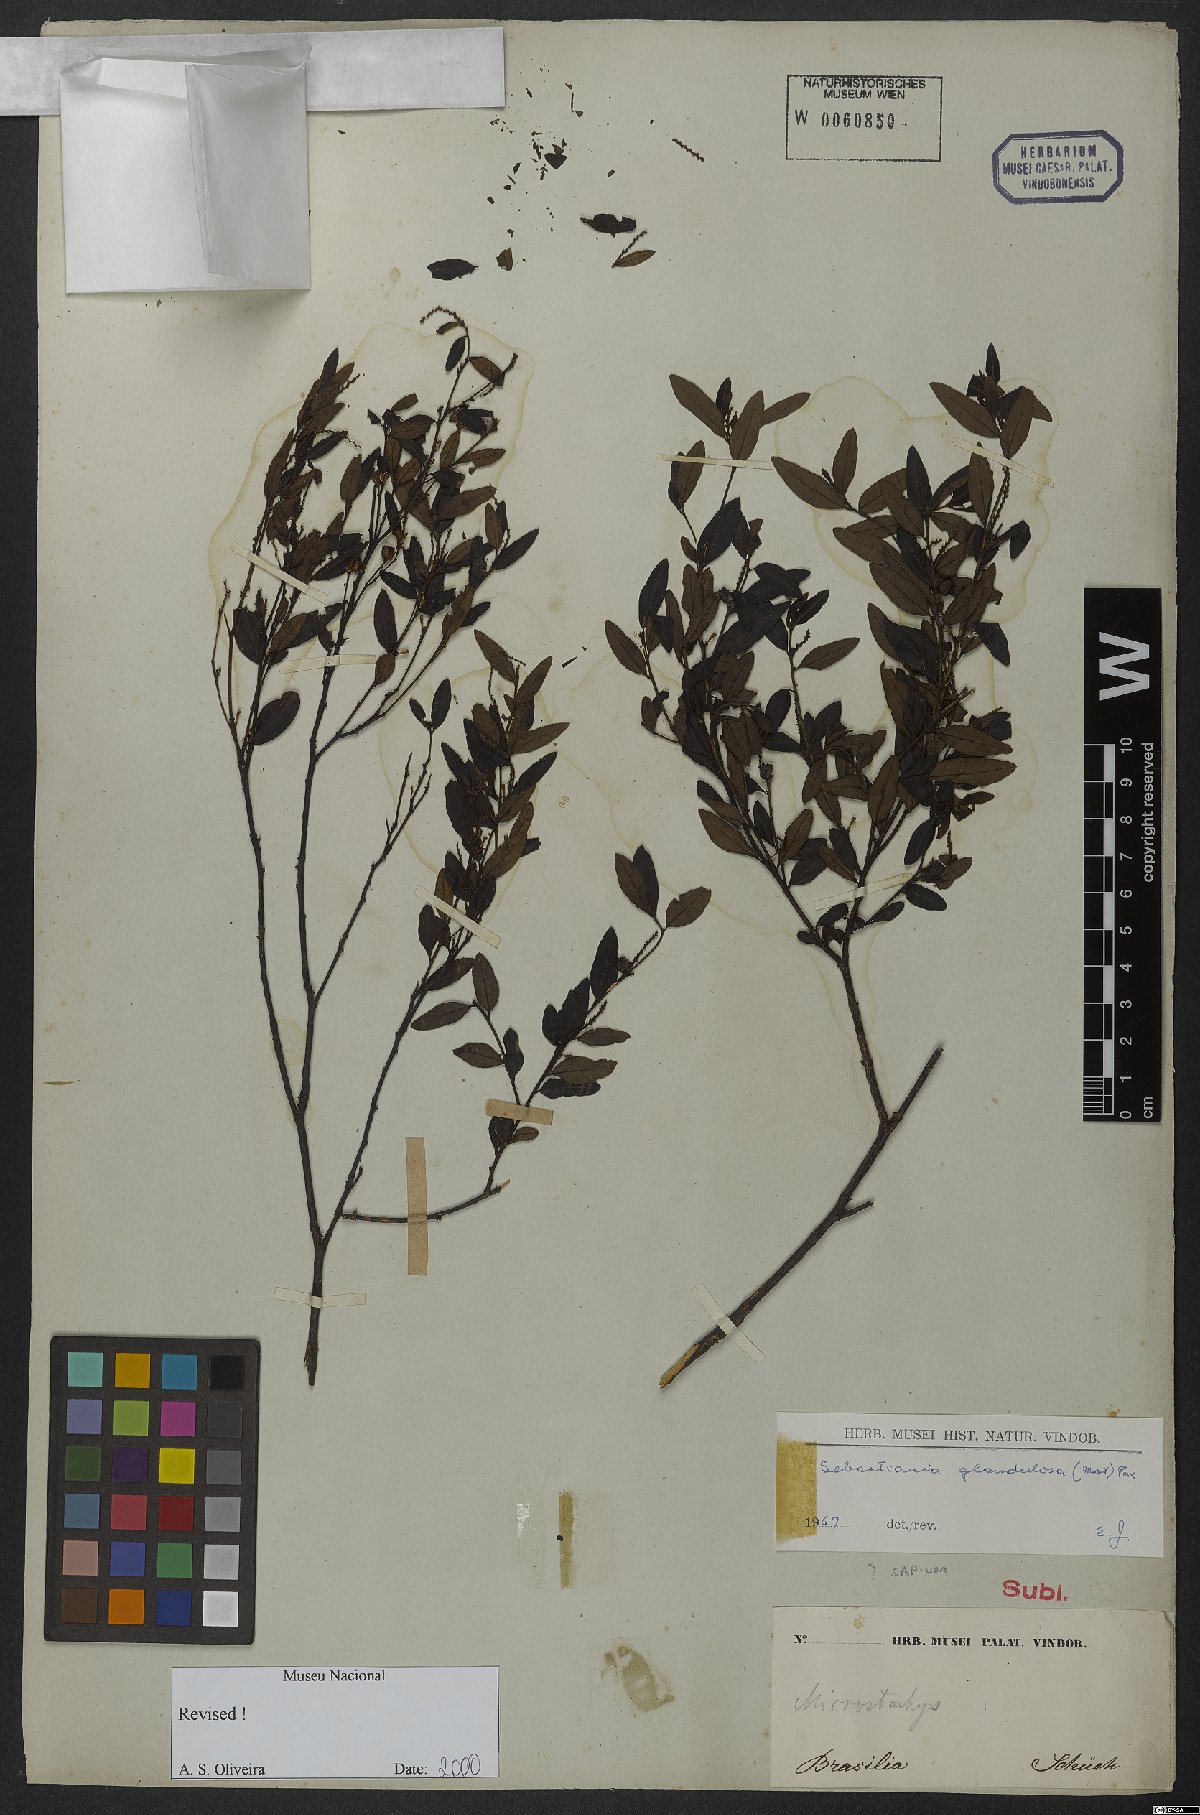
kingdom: Plantae
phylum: Tracheophyta
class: Magnoliopsida
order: Malpighiales
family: Euphorbiaceae
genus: Microstachys
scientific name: Microstachys corniculata
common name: Hato tejas
